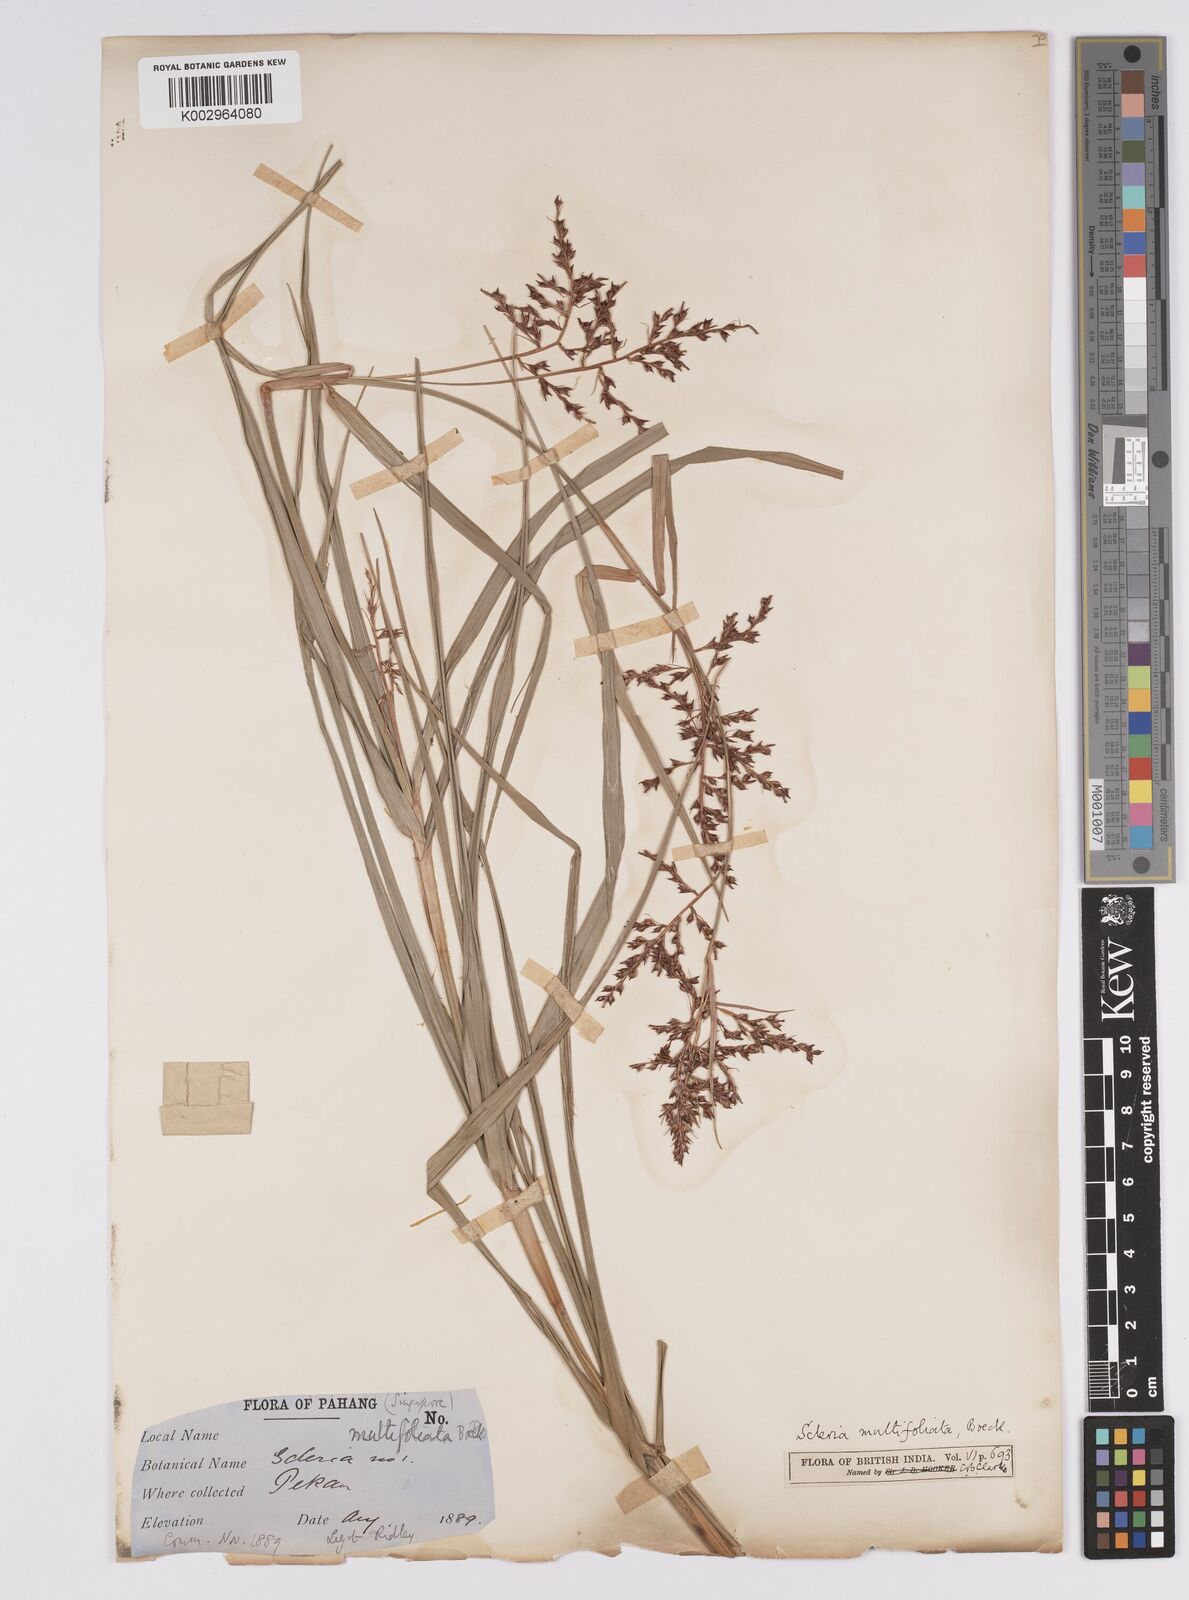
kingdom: Plantae
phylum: Tracheophyta
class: Liliopsida
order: Poales
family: Cyperaceae
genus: Scleria
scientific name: Scleria purpurascens
